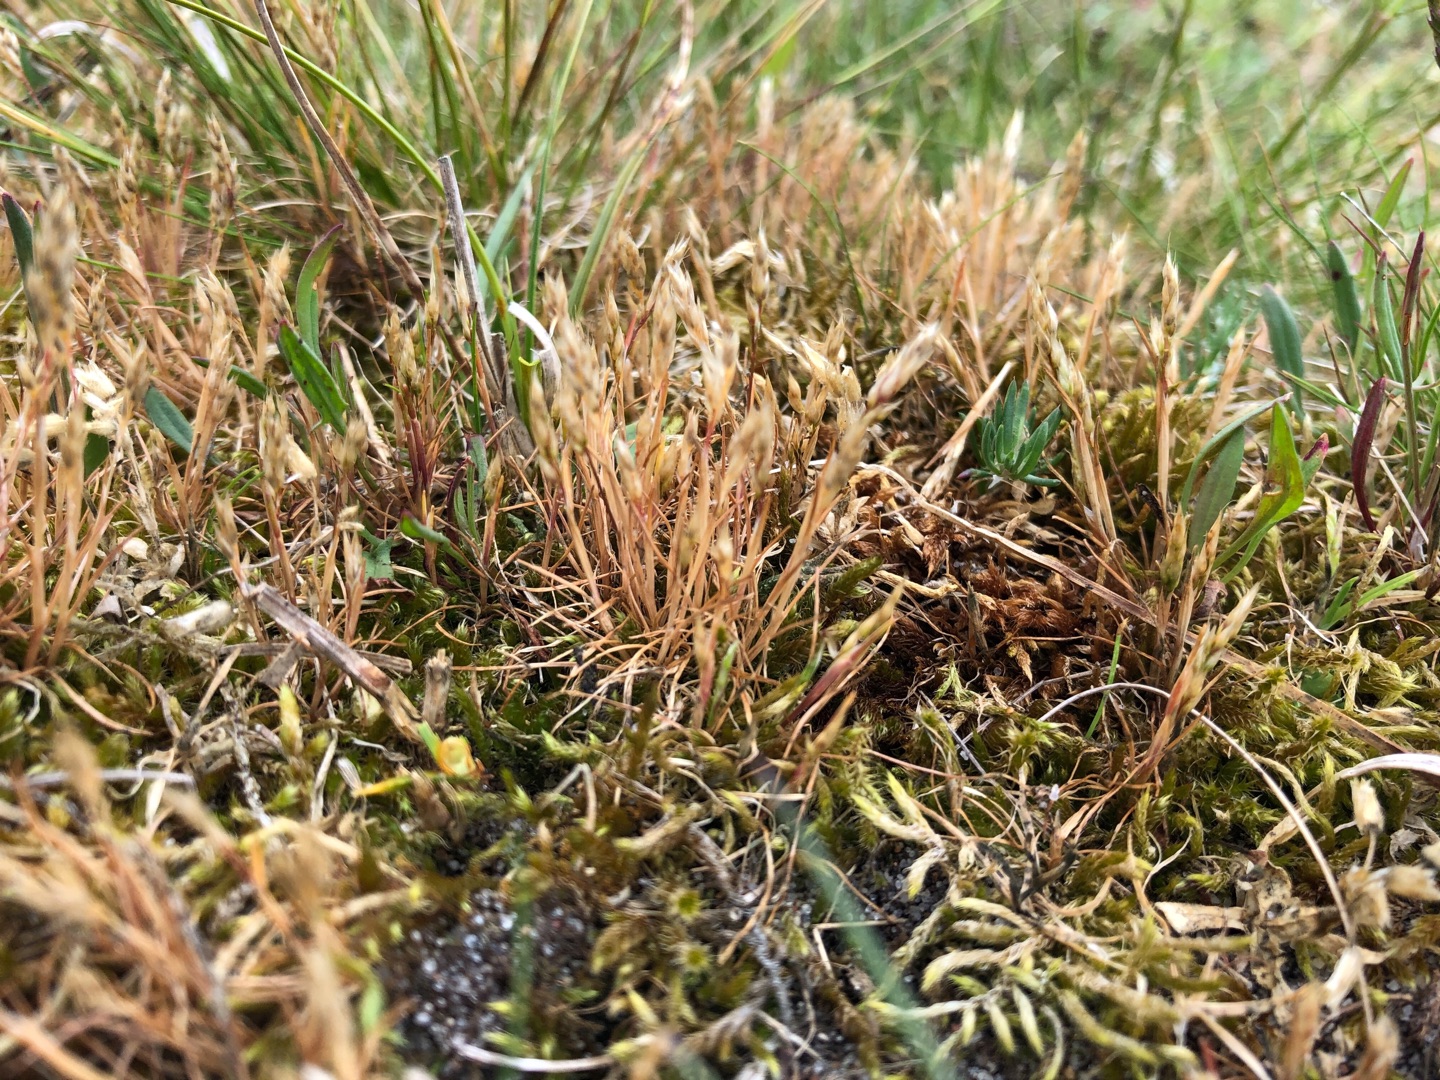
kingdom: Plantae
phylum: Tracheophyta
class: Liliopsida
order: Poales
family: Poaceae
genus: Aira
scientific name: Aira praecox
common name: Tidlig dværgbunke
